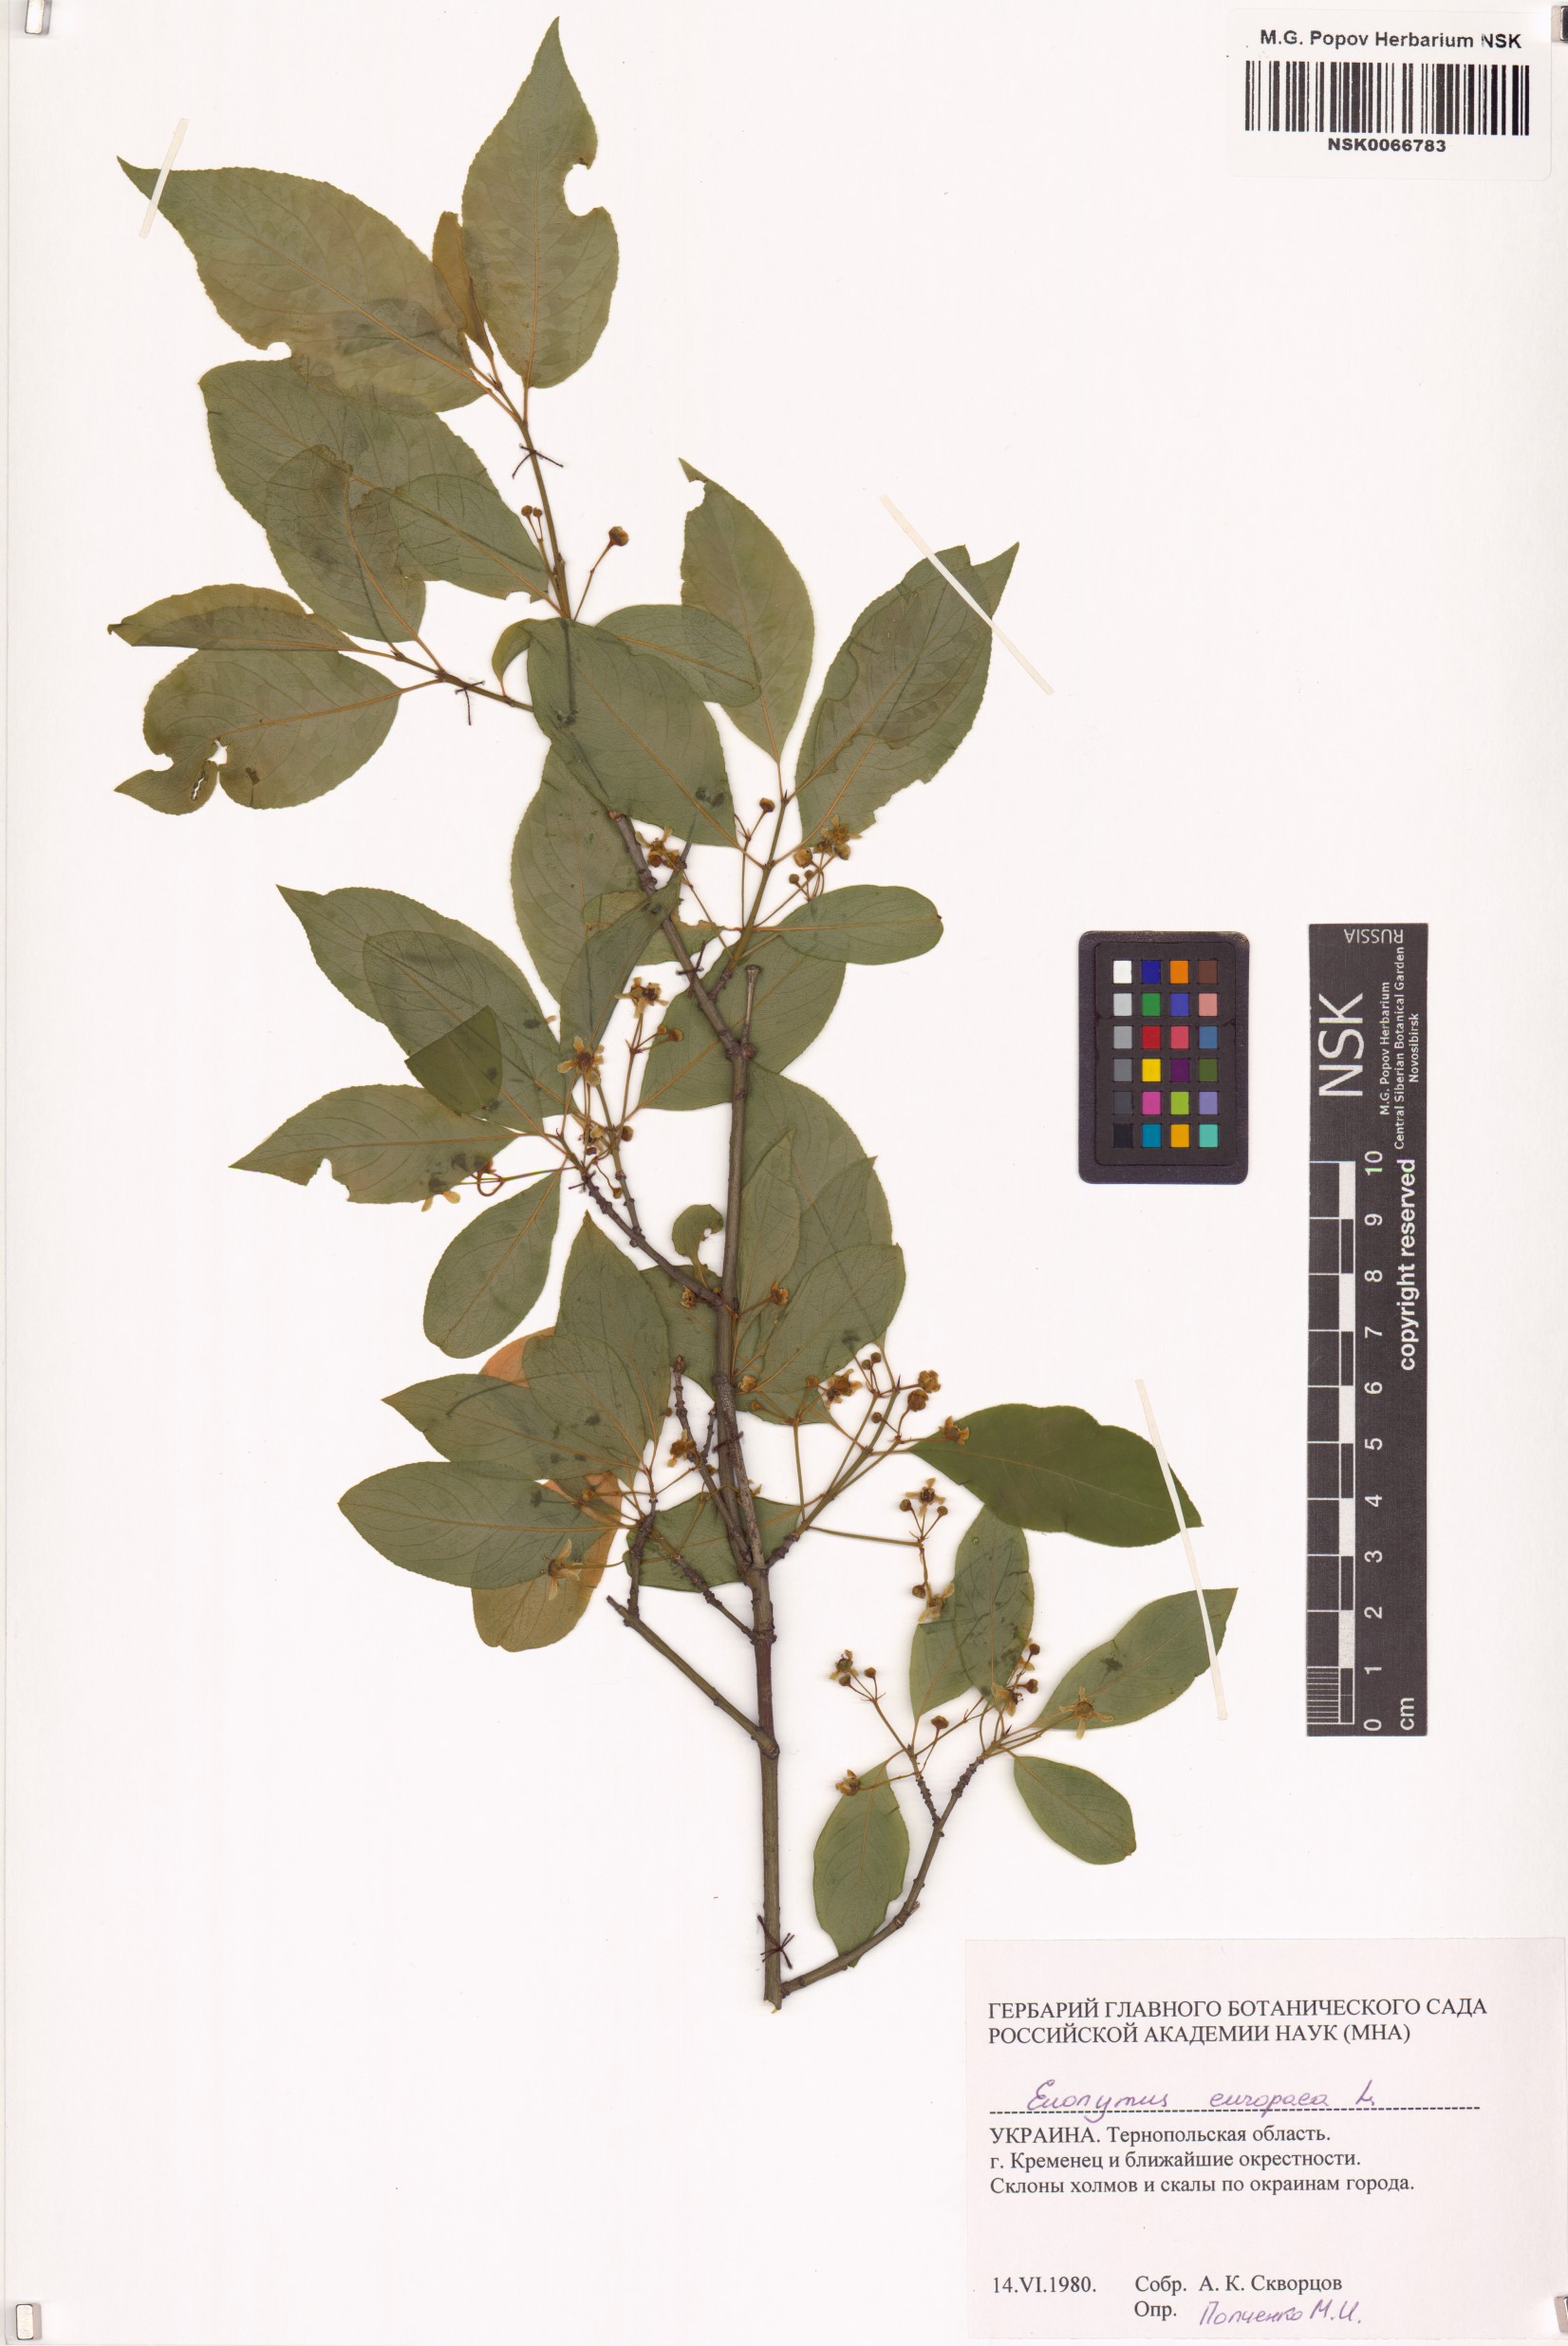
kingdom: Plantae
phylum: Tracheophyta
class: Magnoliopsida
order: Celastrales
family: Celastraceae
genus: Euonymus
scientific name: Euonymus europaeus
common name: Spindle
